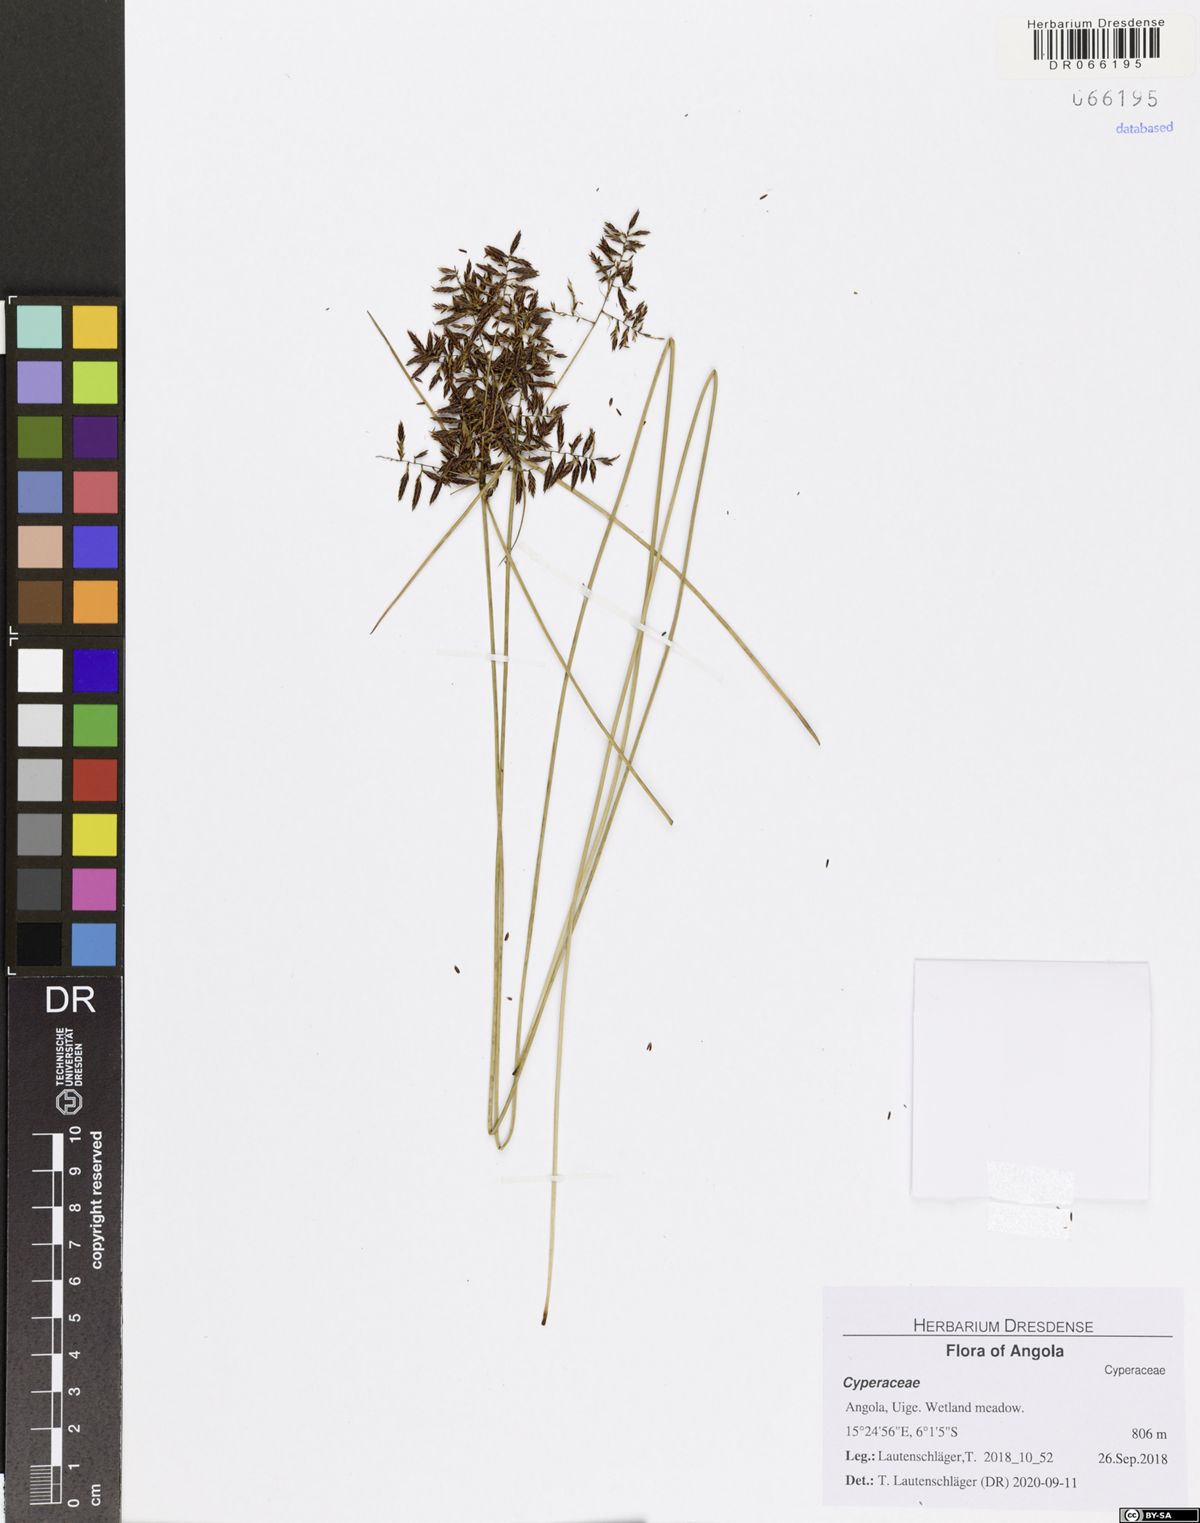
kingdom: Plantae
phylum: Tracheophyta
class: Liliopsida
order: Poales
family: Cyperaceae
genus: Cyperus
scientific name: Cyperus testui
